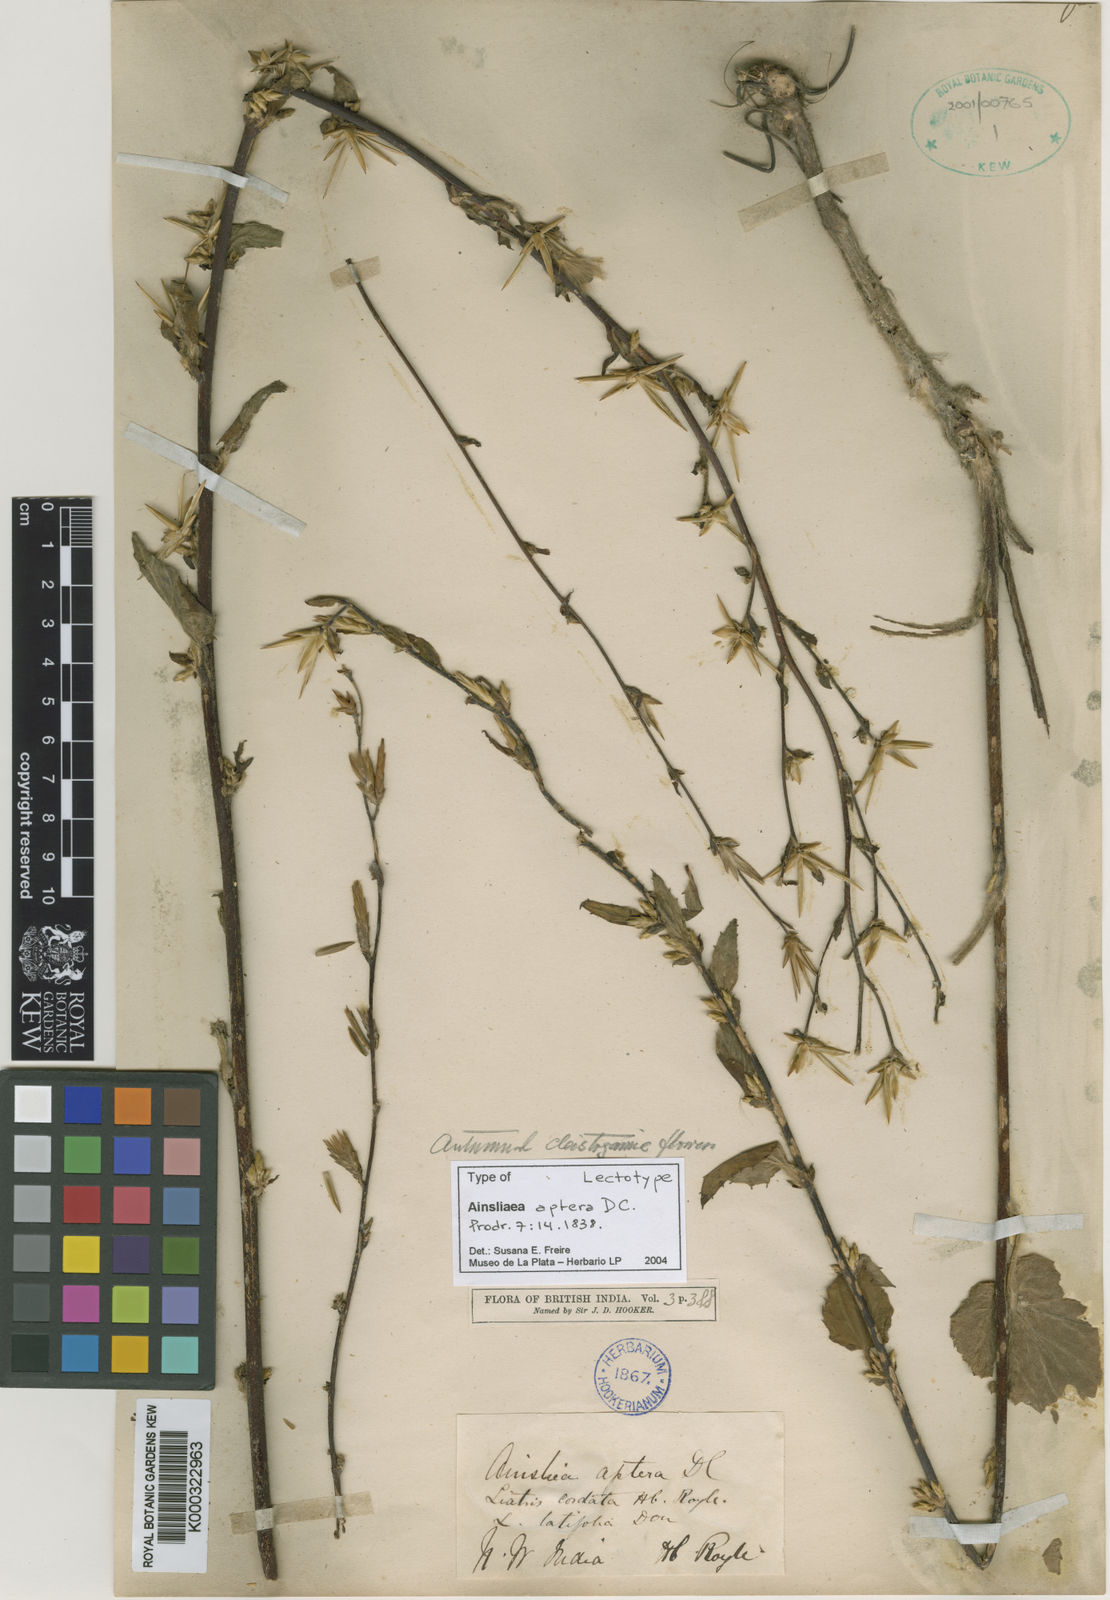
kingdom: Plantae
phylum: Tracheophyta
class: Magnoliopsida
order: Asterales
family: Asteraceae
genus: Ainsliaea
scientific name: Ainsliaea aptera
